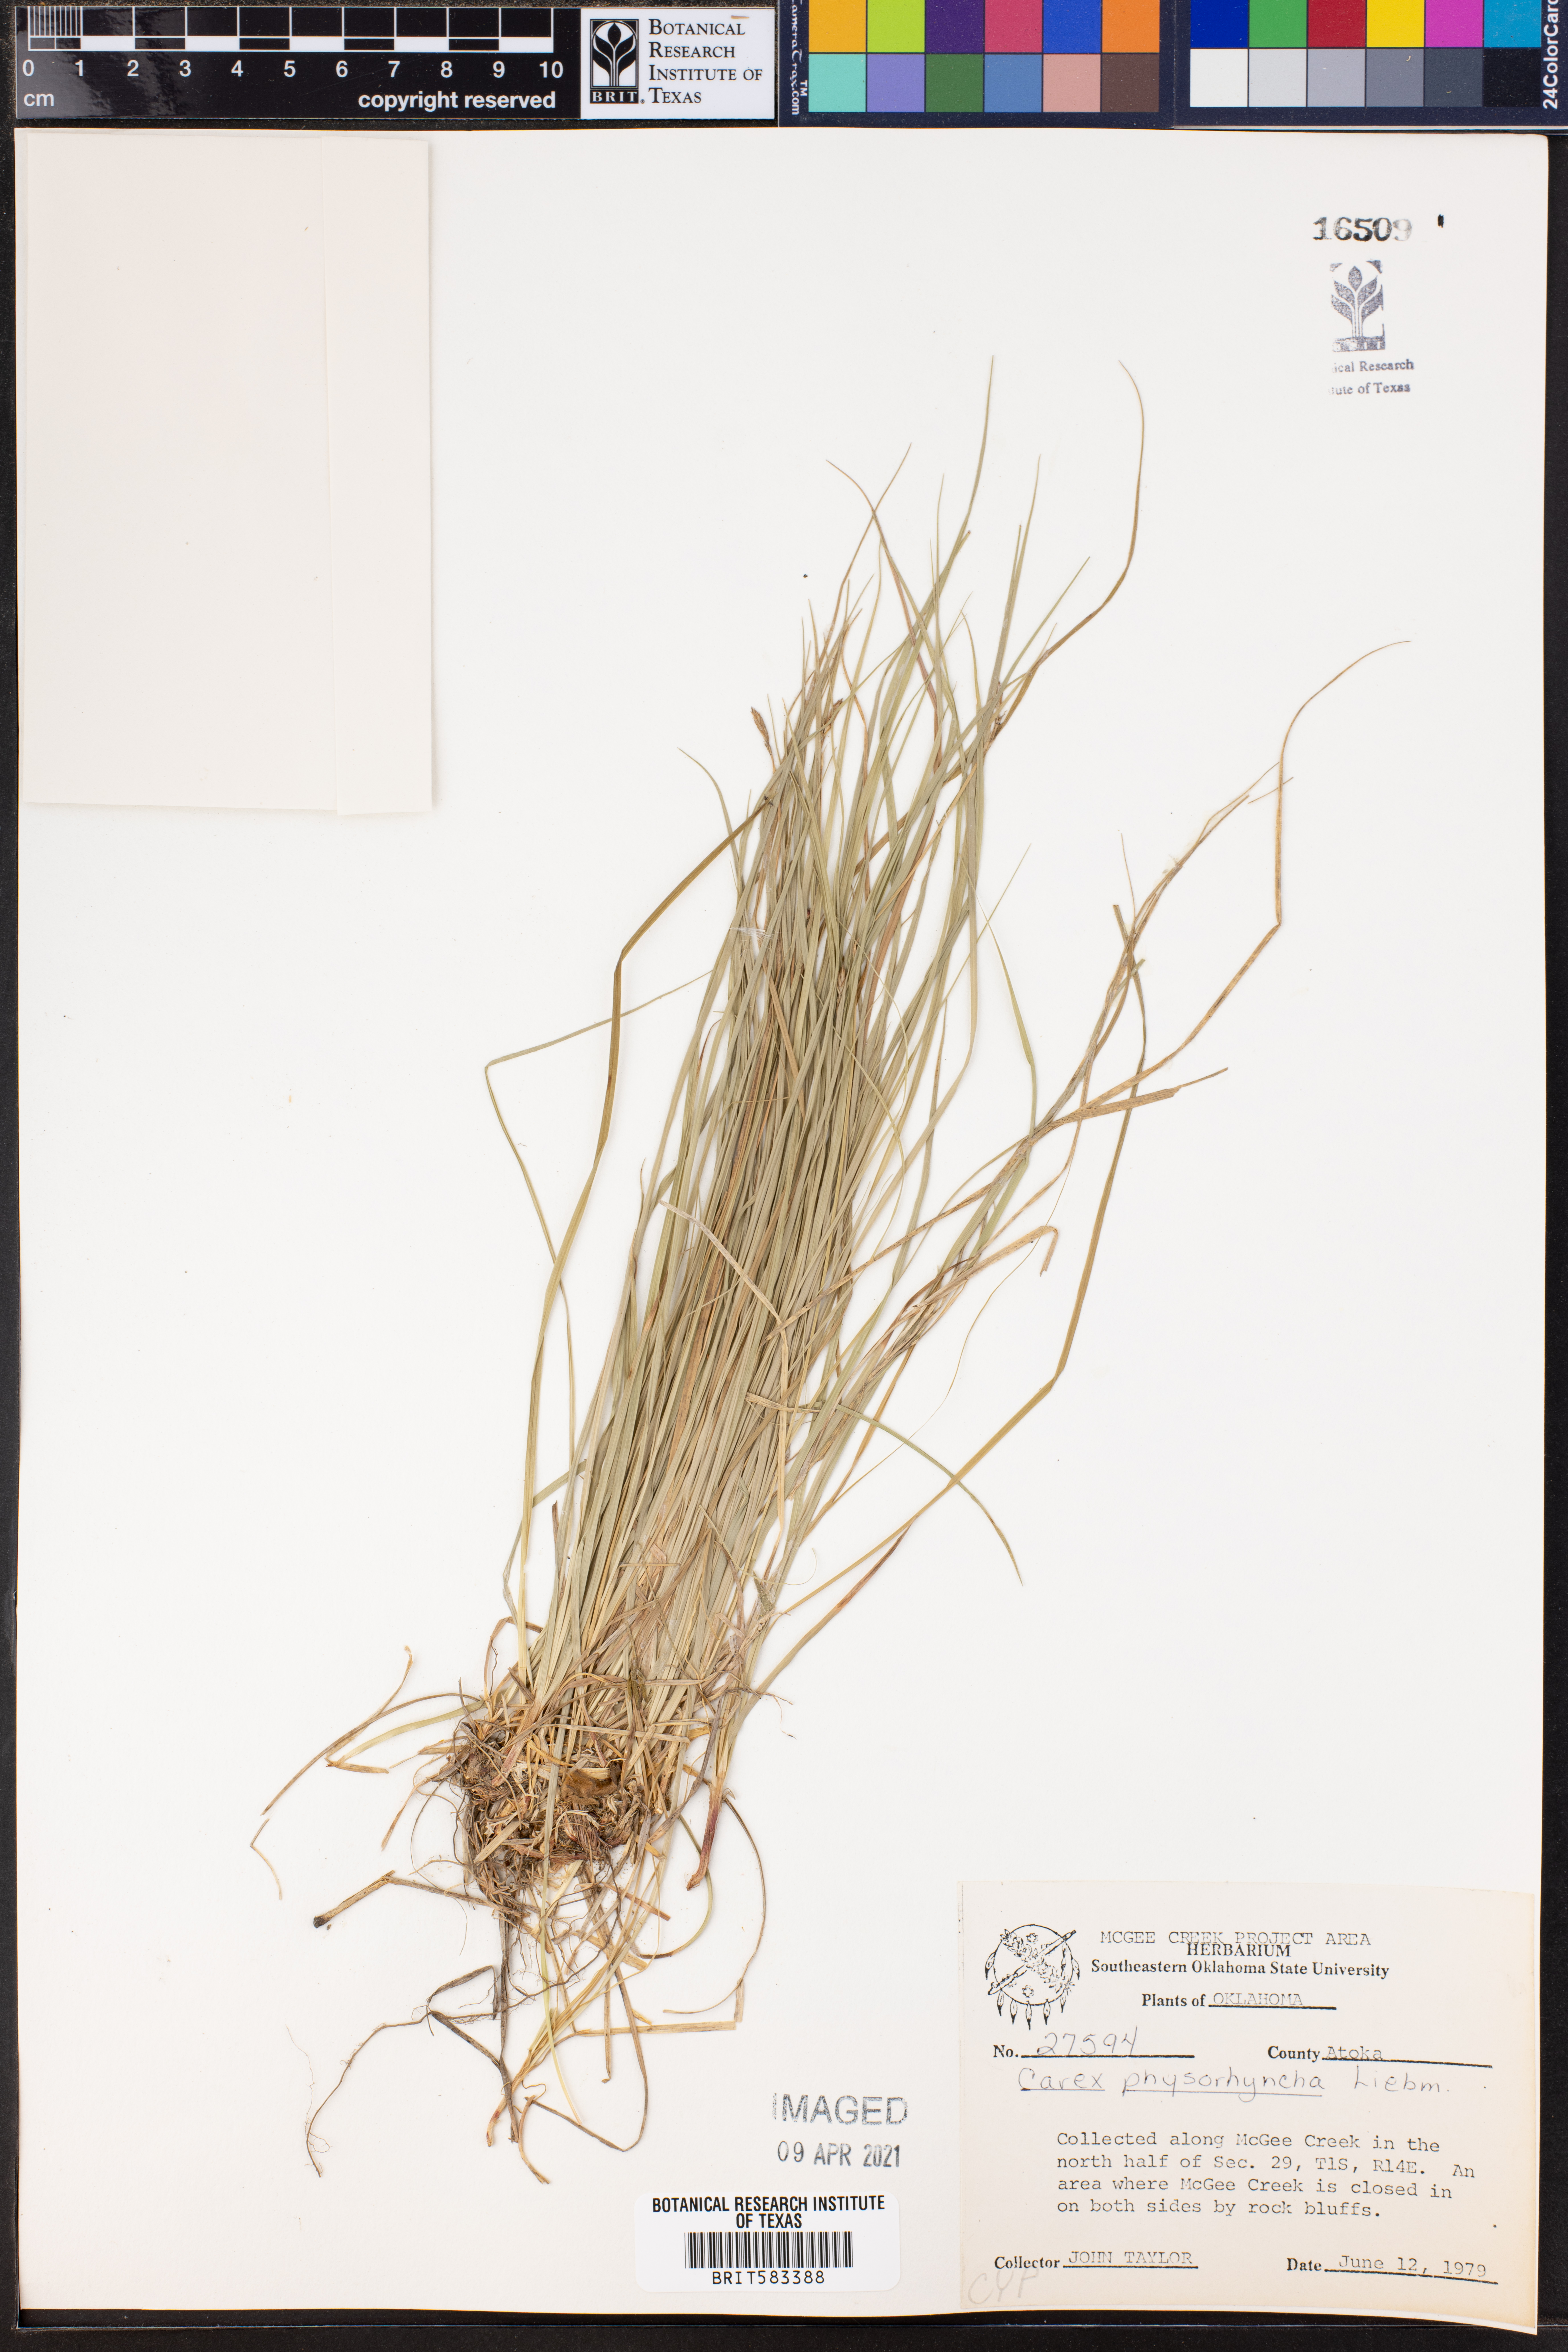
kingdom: Plantae
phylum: Tracheophyta
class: Liliopsida
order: Poales
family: Cyperaceae
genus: Carex
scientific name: Carex albicans
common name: Bellow-beaked sedge
